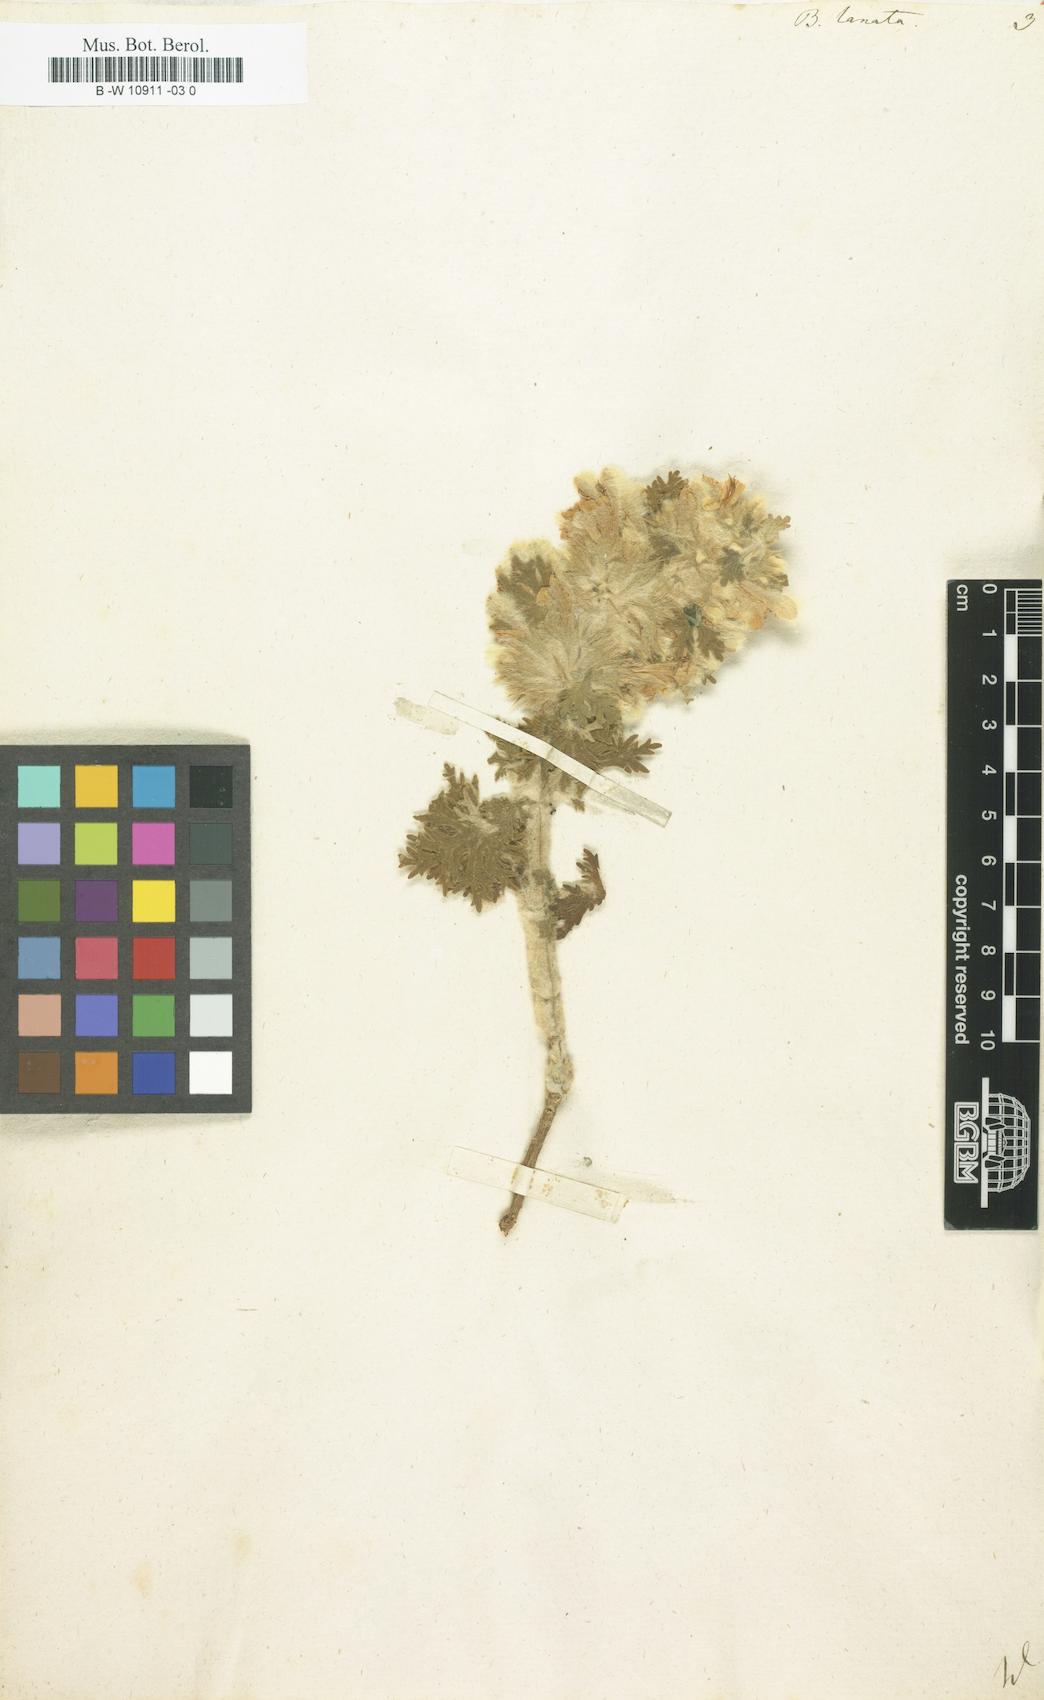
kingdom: Plantae
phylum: Tracheophyta
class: Magnoliopsida
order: Lamiales
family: Lamiaceae
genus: Ballota
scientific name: Ballota lanata
